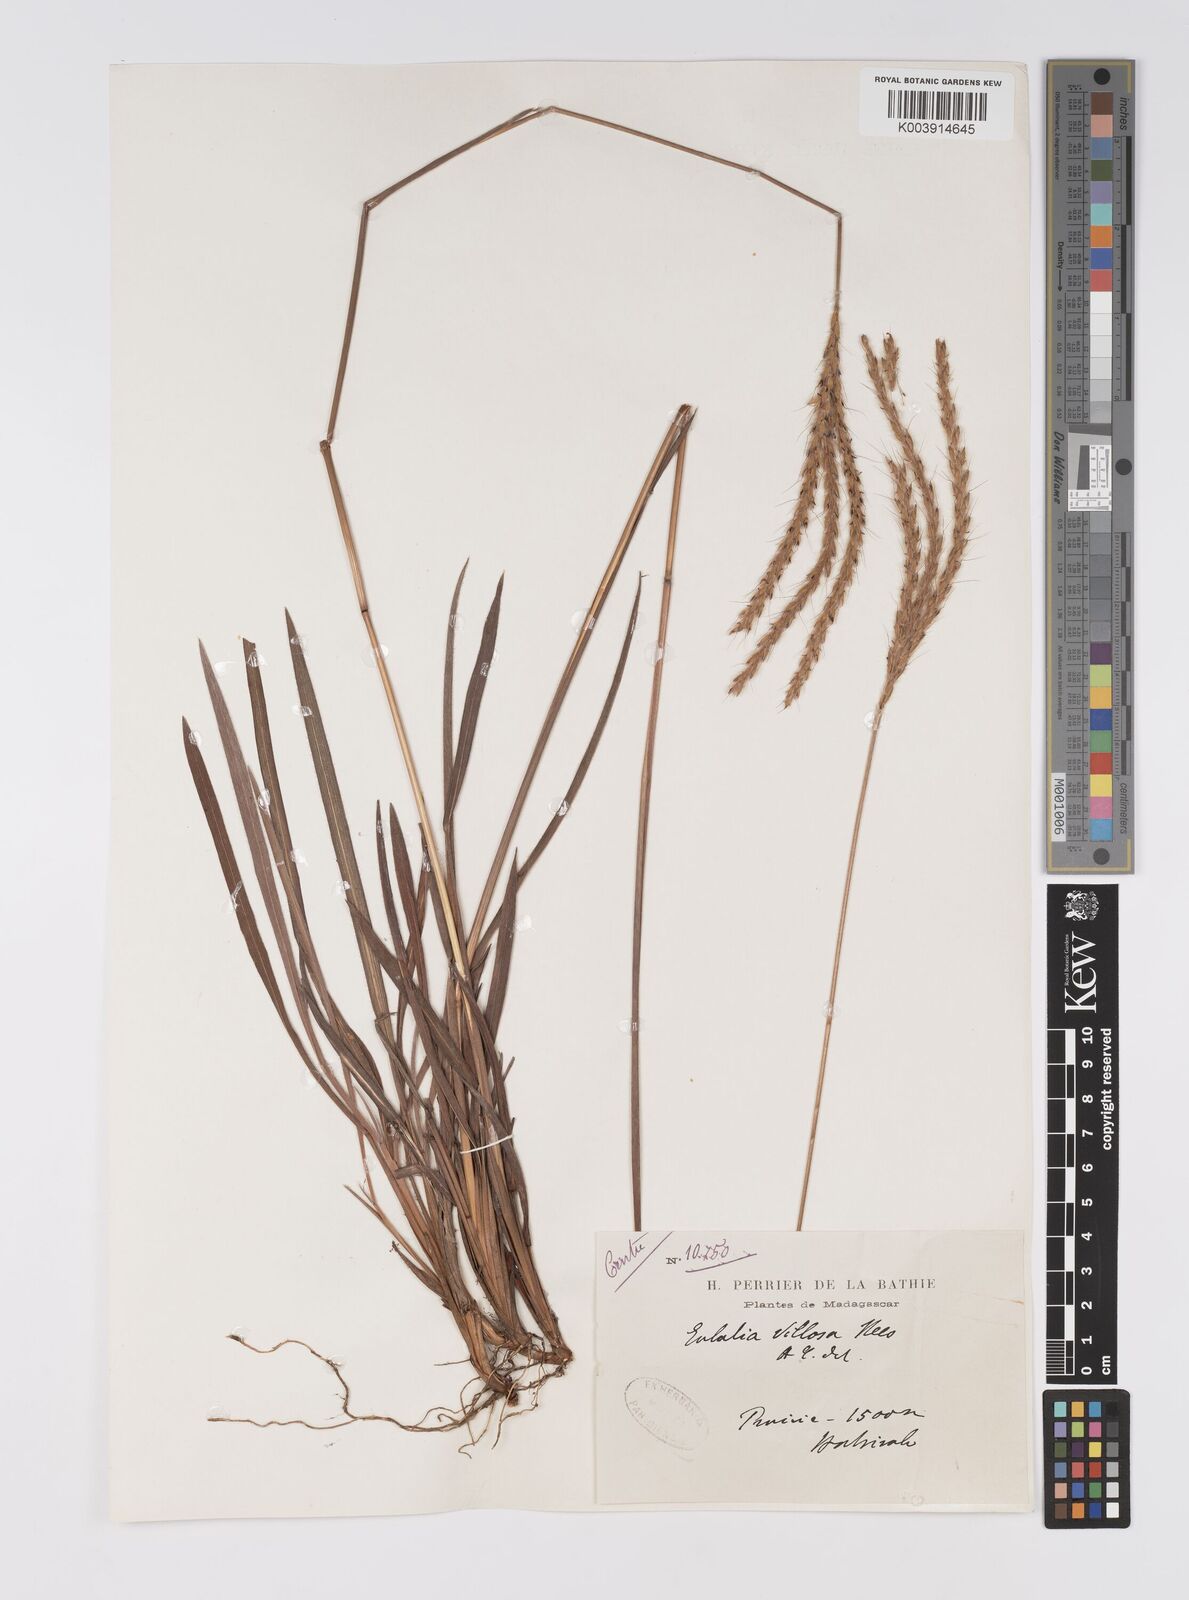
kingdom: Plantae
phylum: Tracheophyta
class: Liliopsida
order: Poales
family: Poaceae
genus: Eulalia
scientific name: Eulalia villosa
